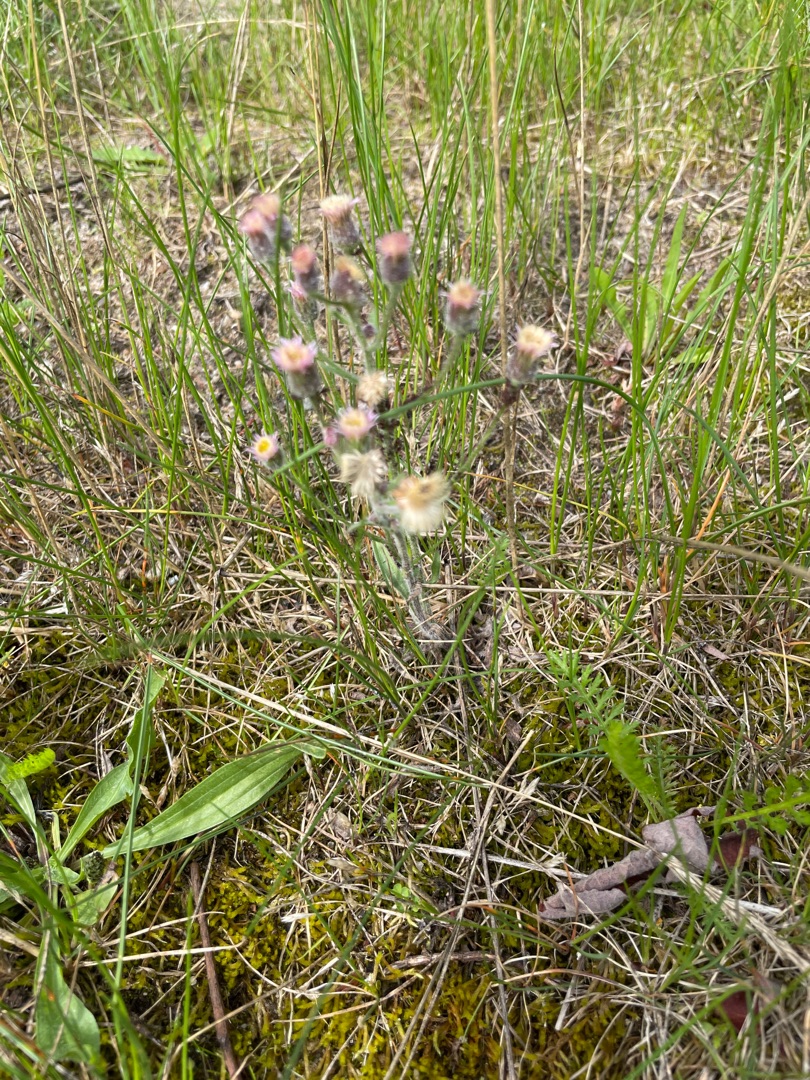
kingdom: Plantae
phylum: Tracheophyta
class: Magnoliopsida
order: Asterales
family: Asteraceae
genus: Erigeron
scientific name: Erigeron acris
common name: Bitter bakkestjerne
